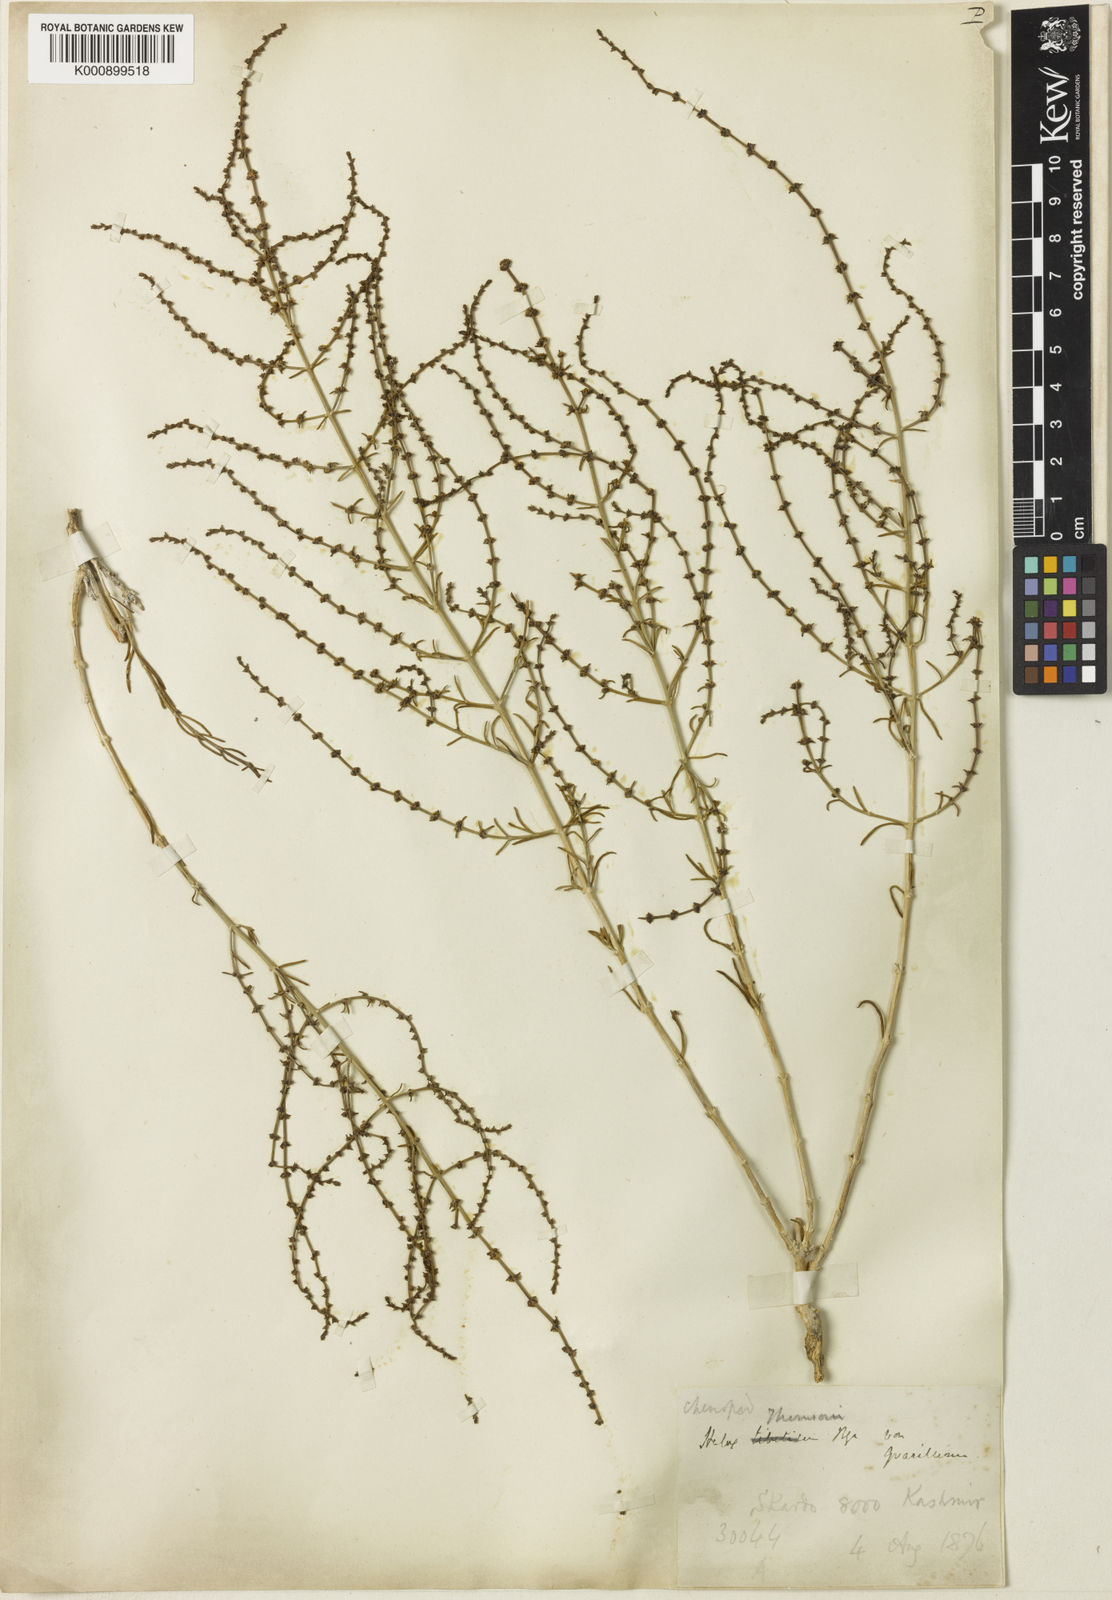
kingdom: Plantae
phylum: Tracheophyta
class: Magnoliopsida
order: Caryophyllales
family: Amaranthaceae
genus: Haloxylon
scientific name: Haloxylon thomsonii
